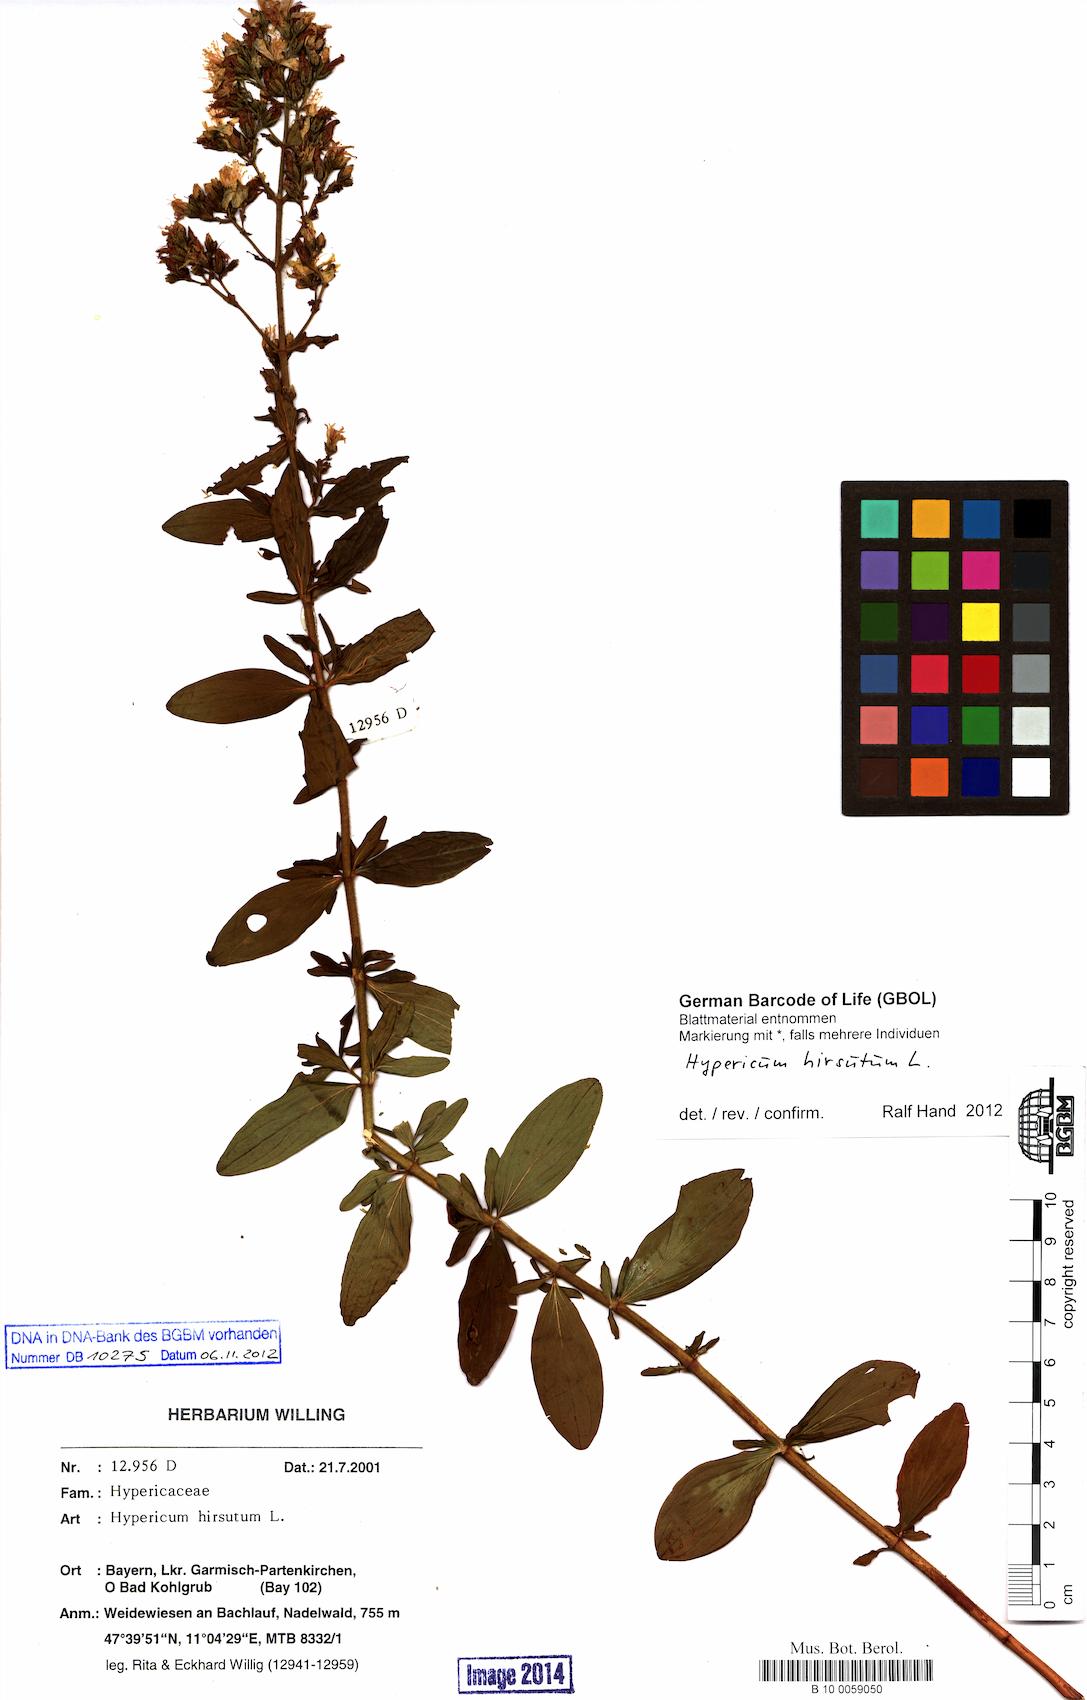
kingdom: Plantae
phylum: Tracheophyta
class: Magnoliopsida
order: Malpighiales
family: Hypericaceae
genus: Hypericum
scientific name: Hypericum hirsutum
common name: Hairy st. john's-wort
